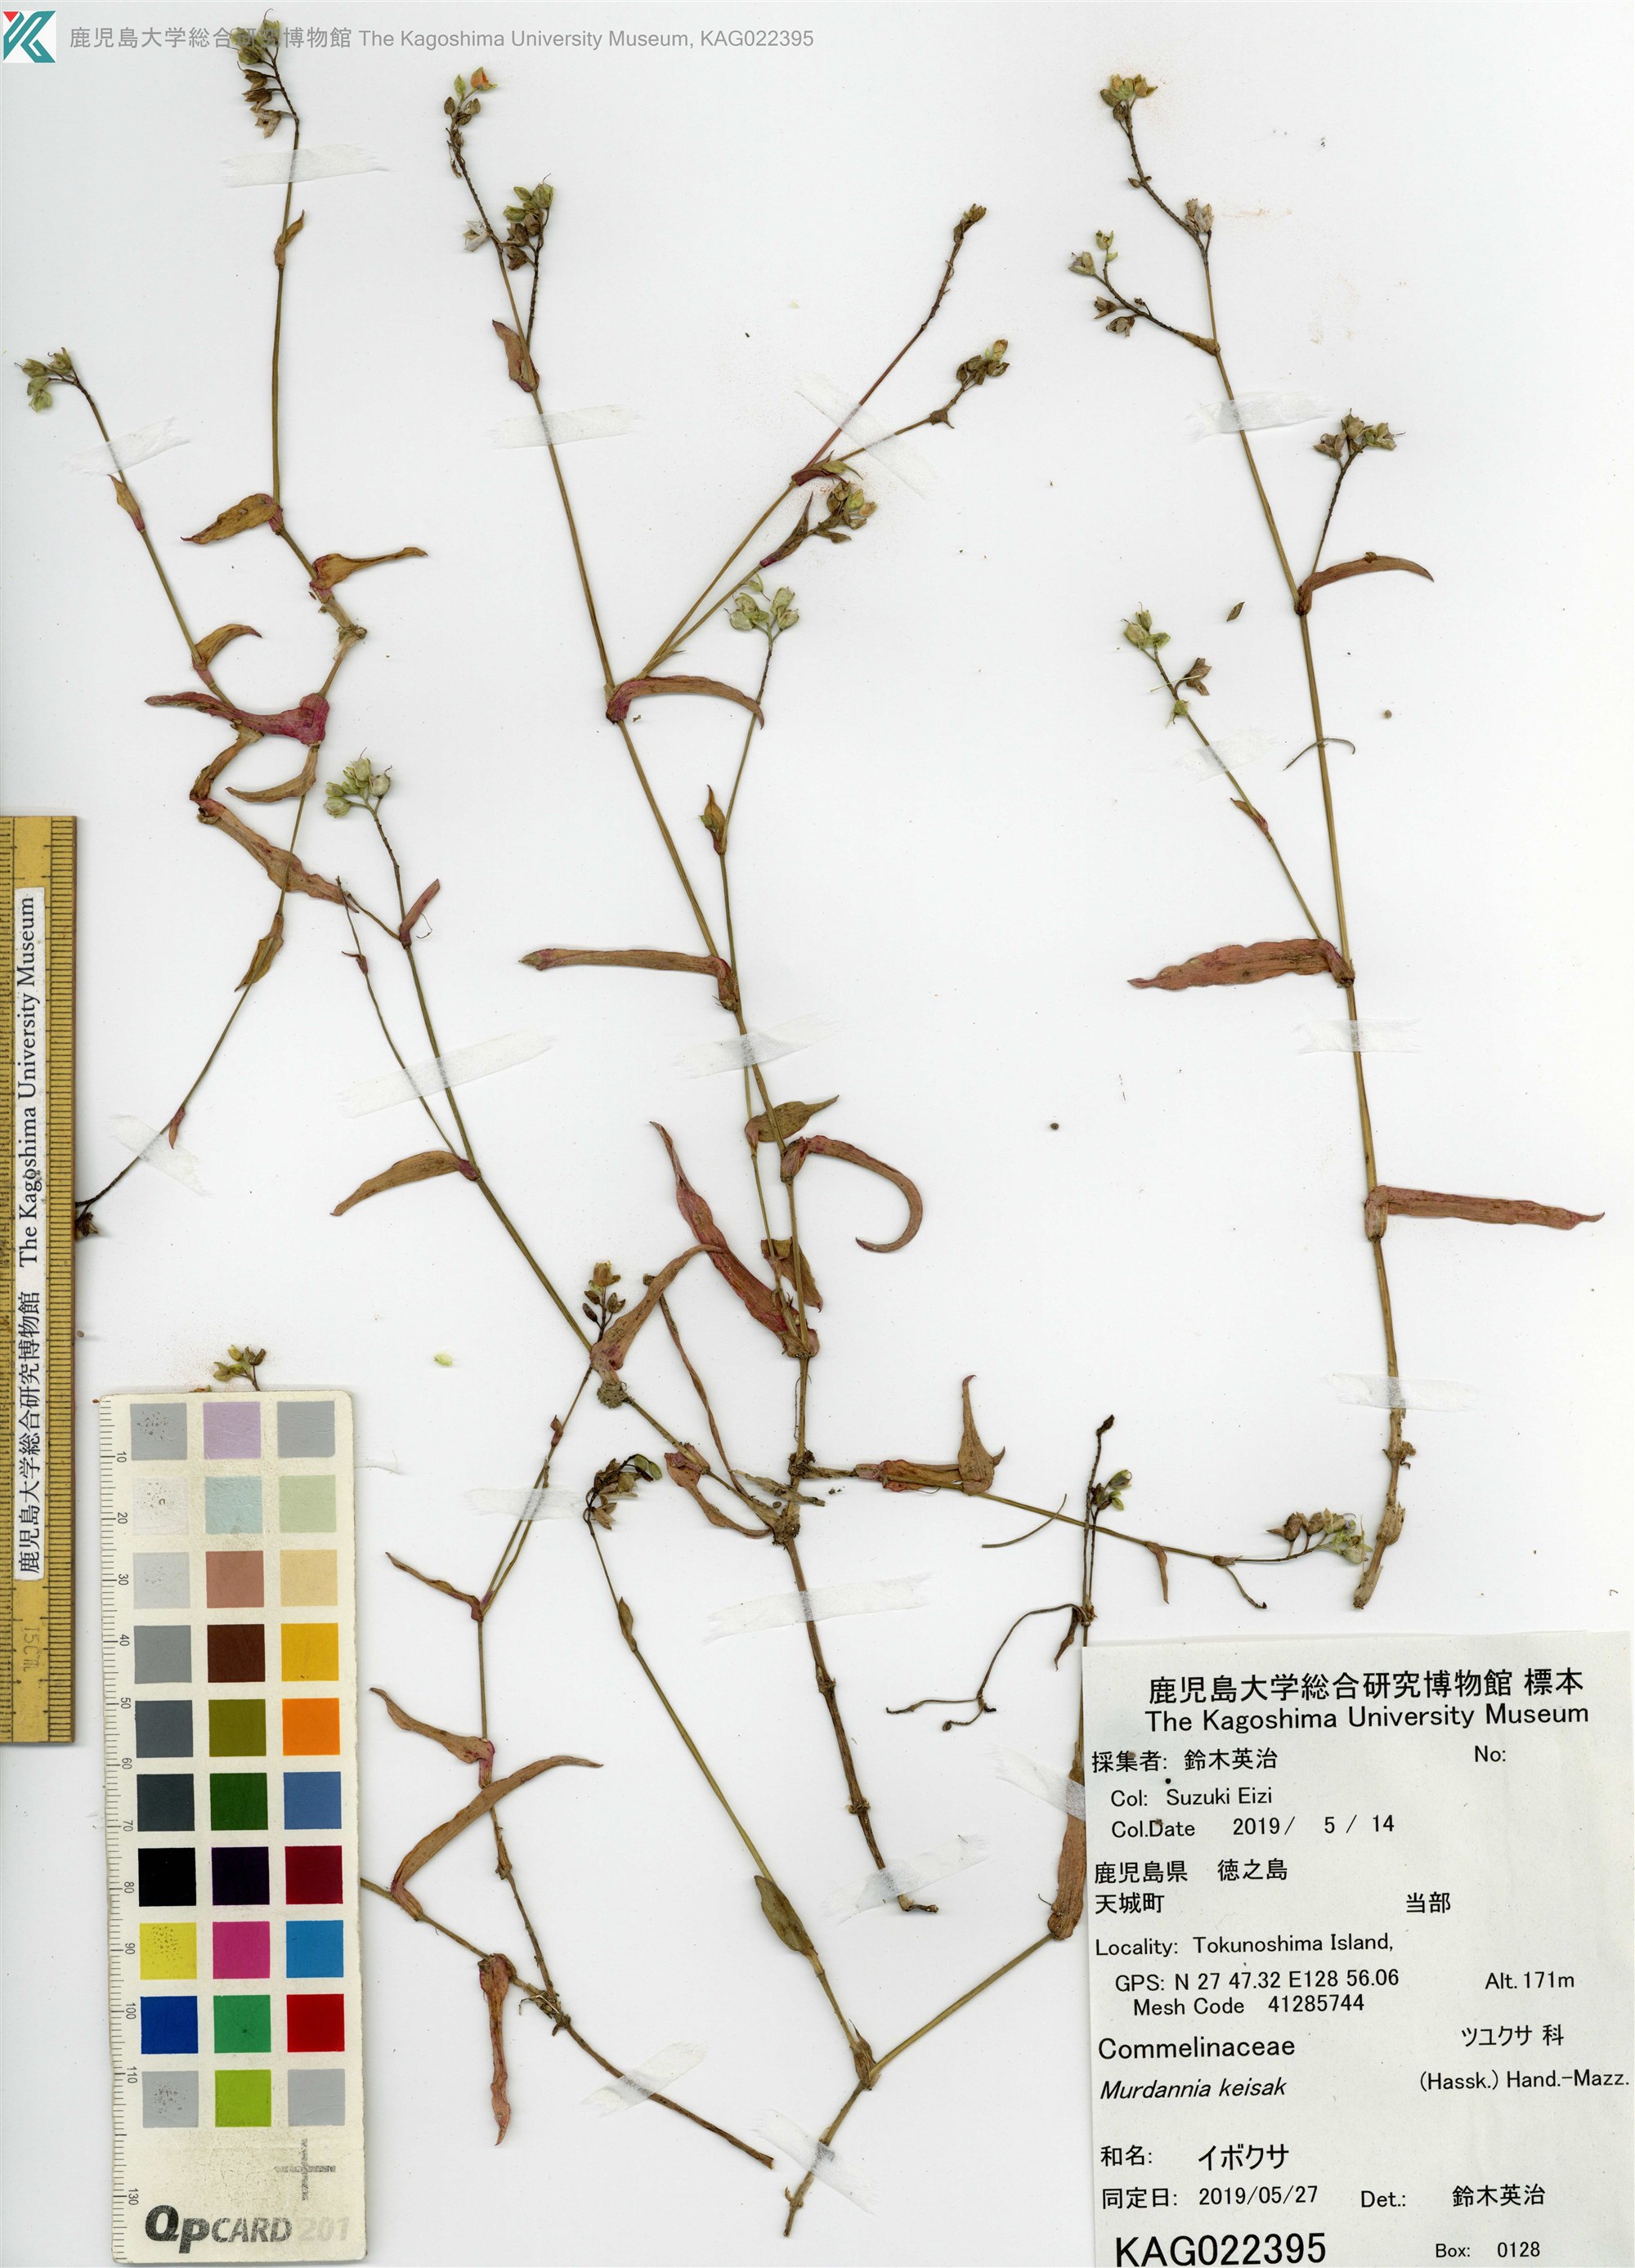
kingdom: Plantae
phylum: Tracheophyta
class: Liliopsida
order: Commelinales
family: Commelinaceae
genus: Murdannia
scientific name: Murdannia loriformis
